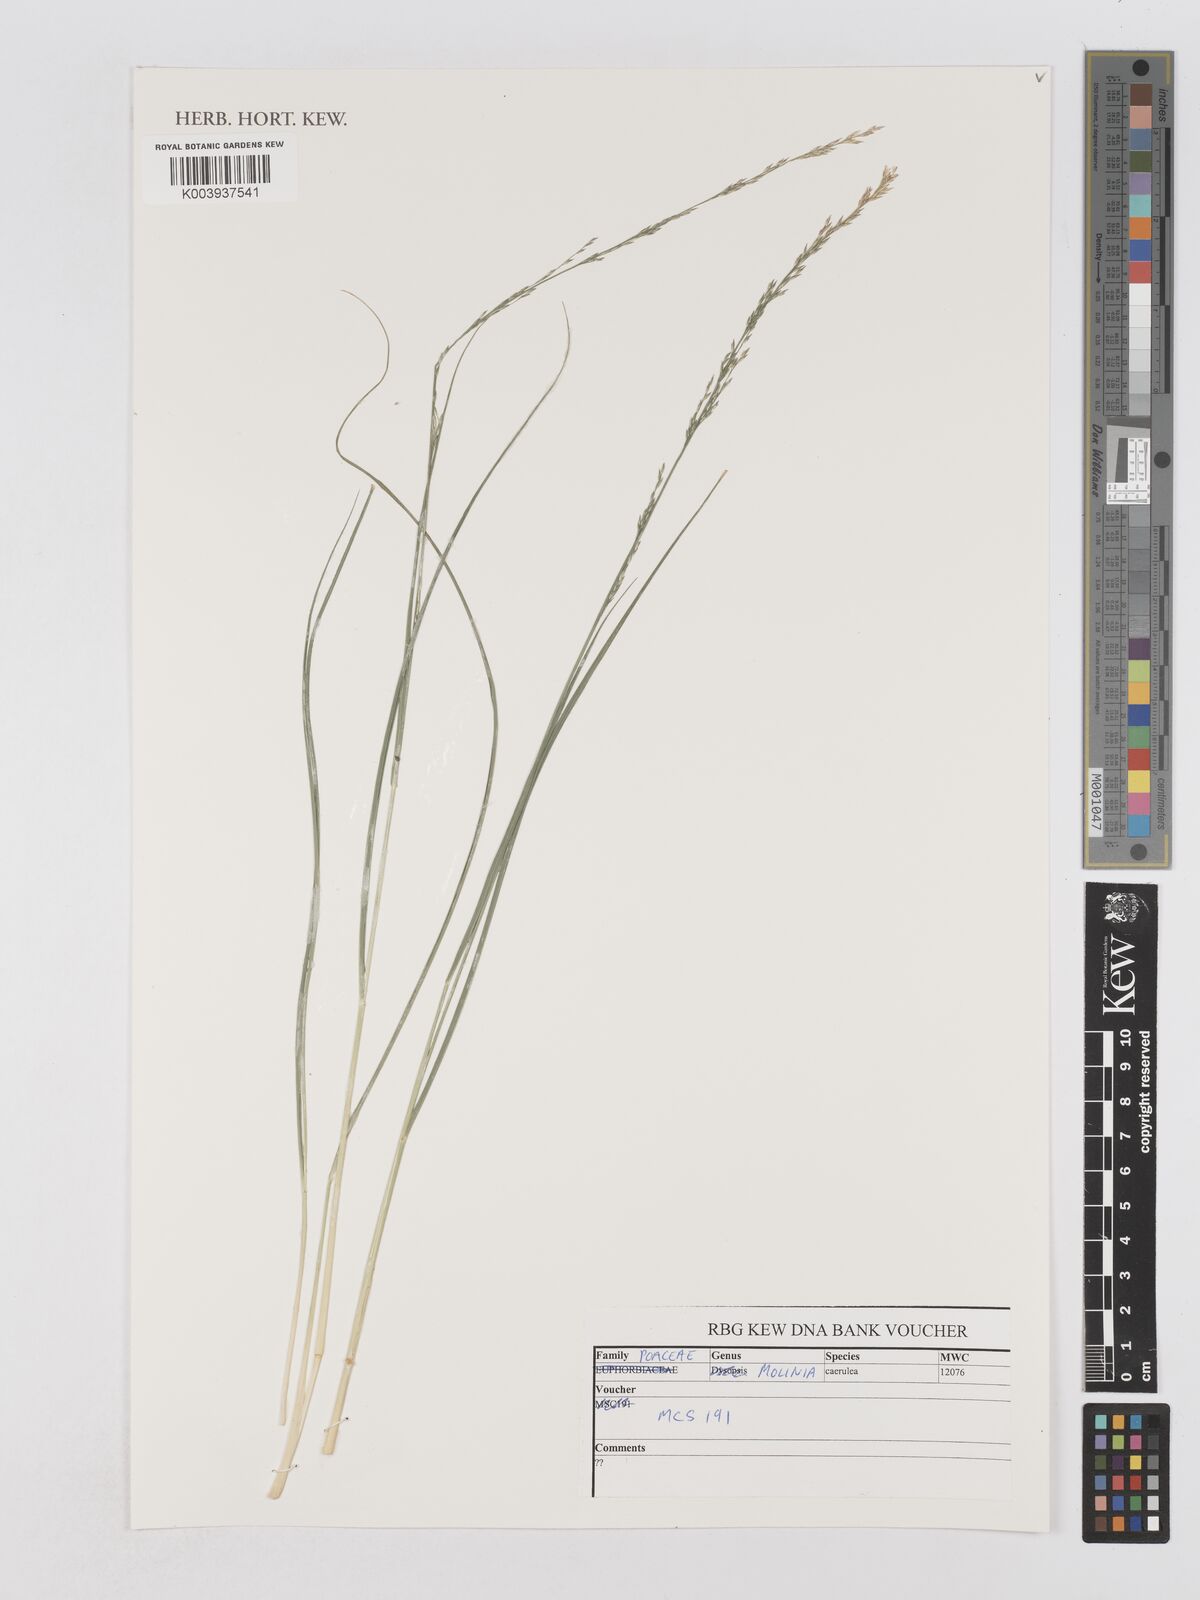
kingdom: Plantae
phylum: Tracheophyta
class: Liliopsida
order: Poales
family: Poaceae
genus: Molinia
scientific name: Molinia
